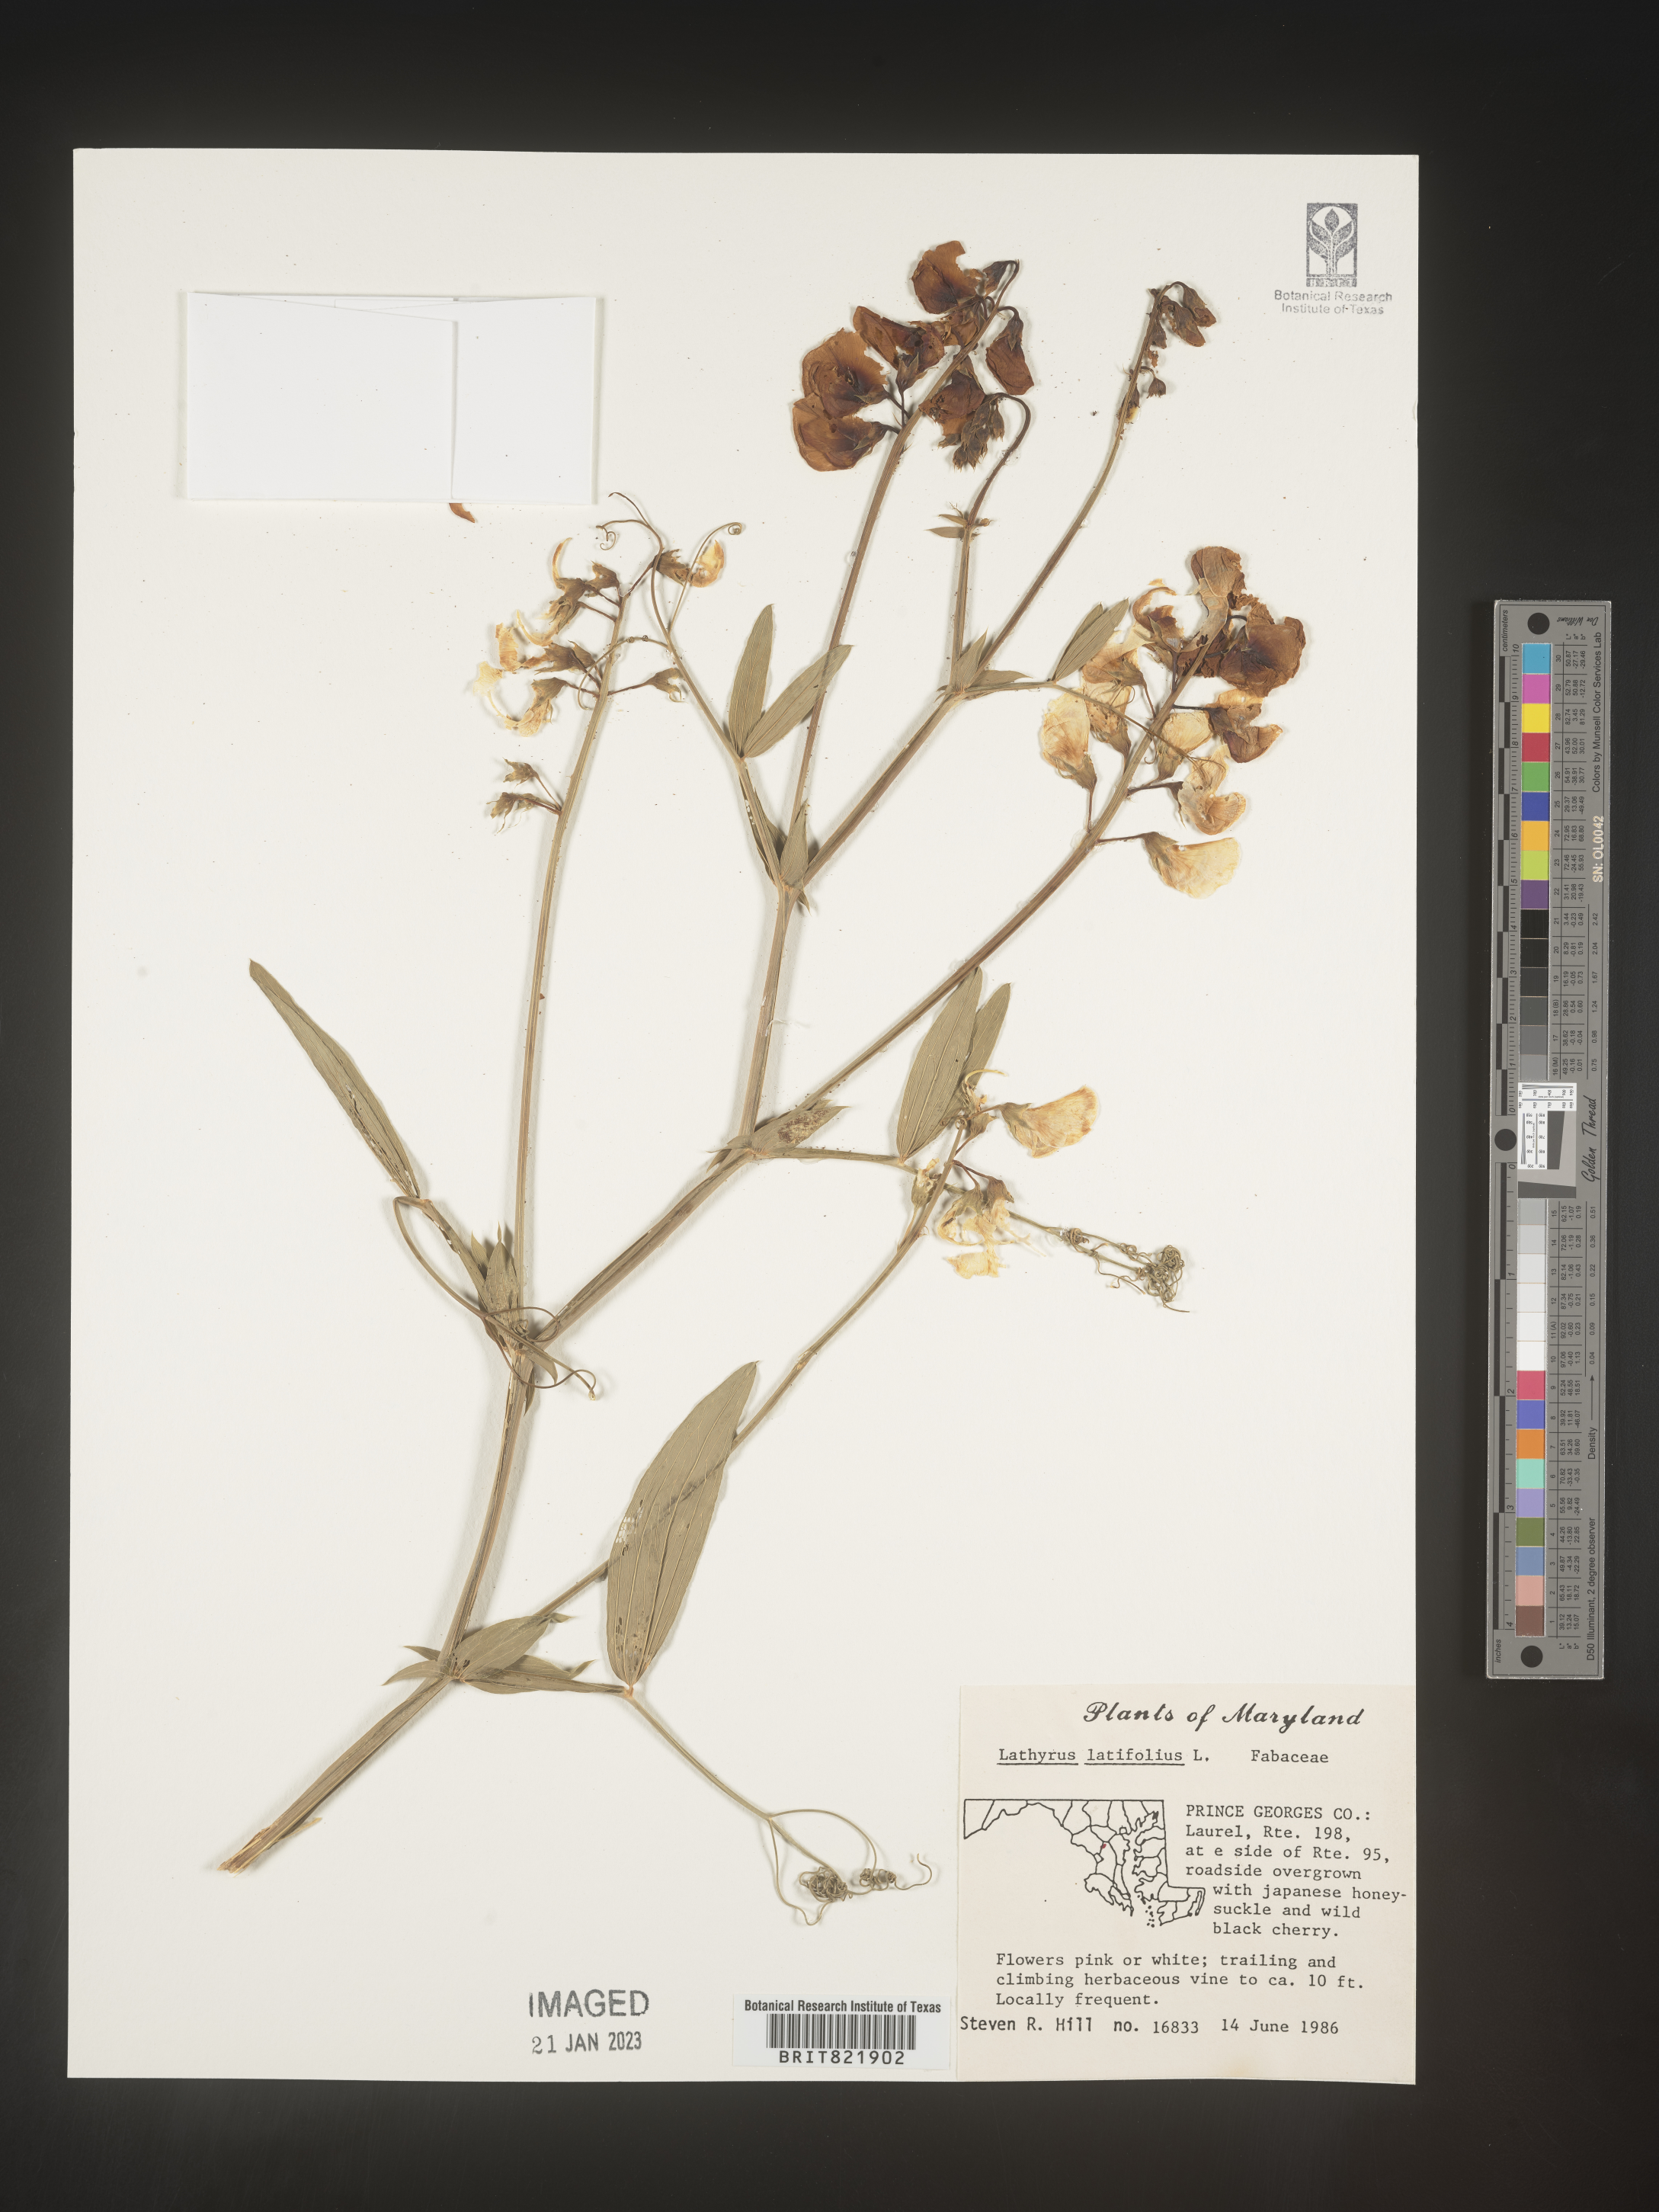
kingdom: Plantae
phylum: Tracheophyta
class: Magnoliopsida
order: Fabales
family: Fabaceae
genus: Lathyrus
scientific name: Lathyrus latifolius
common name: Perennial pea
